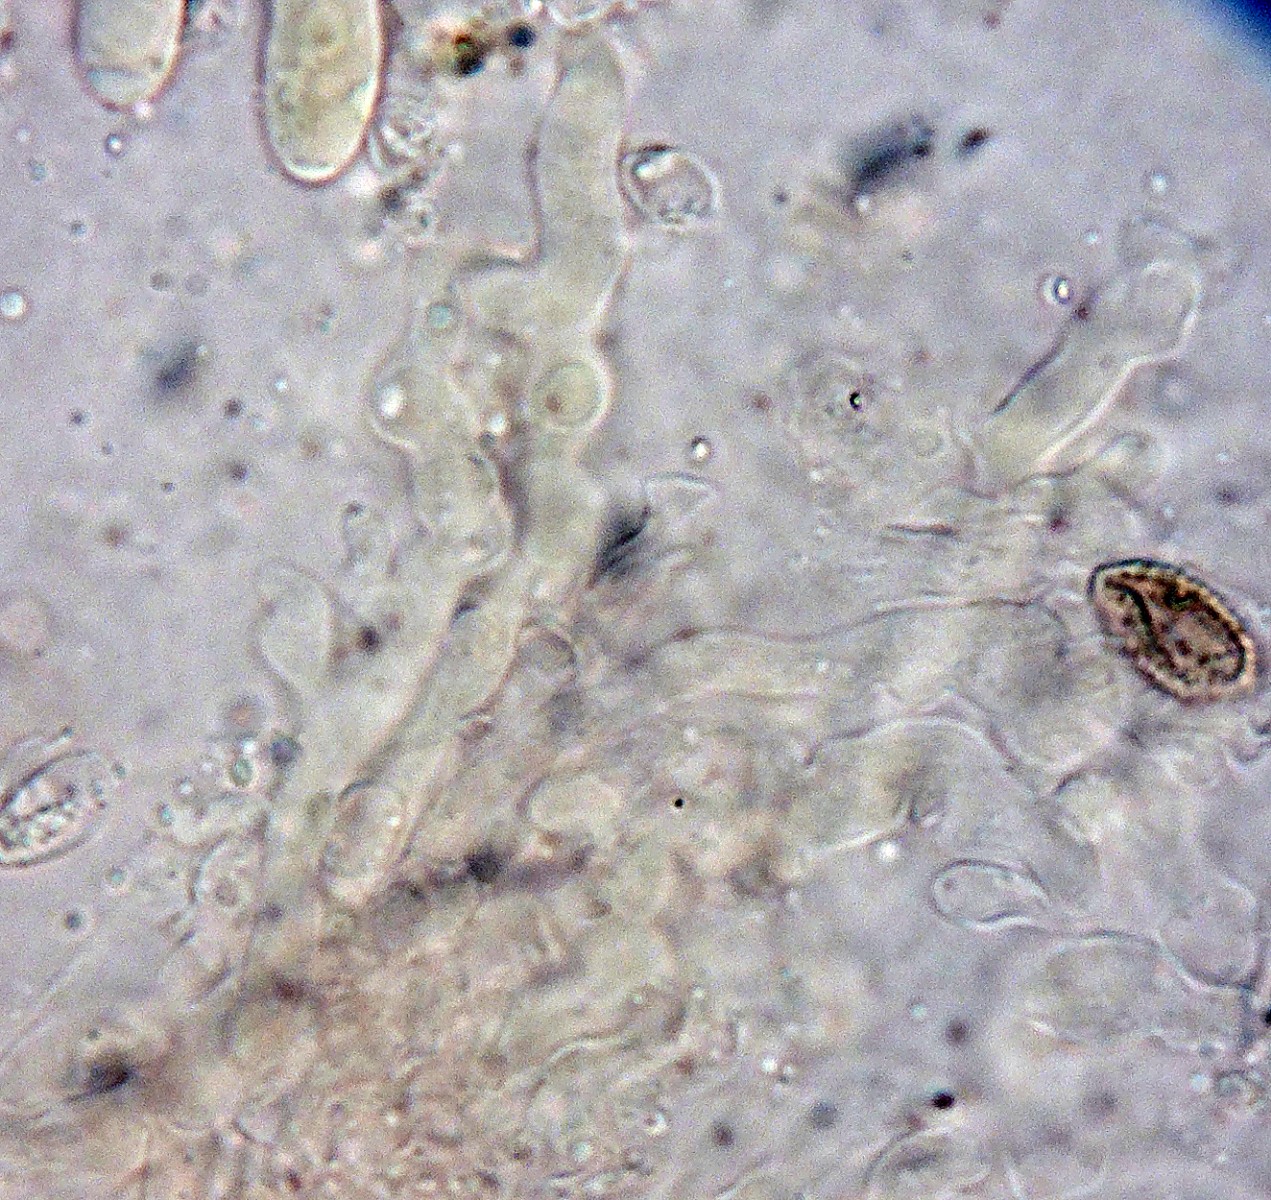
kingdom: Fungi
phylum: Basidiomycota
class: Agaricomycetes
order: Agaricales
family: Mycenaceae
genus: Resinomycena
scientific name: Resinomycena saccharifera
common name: sukkerhat
